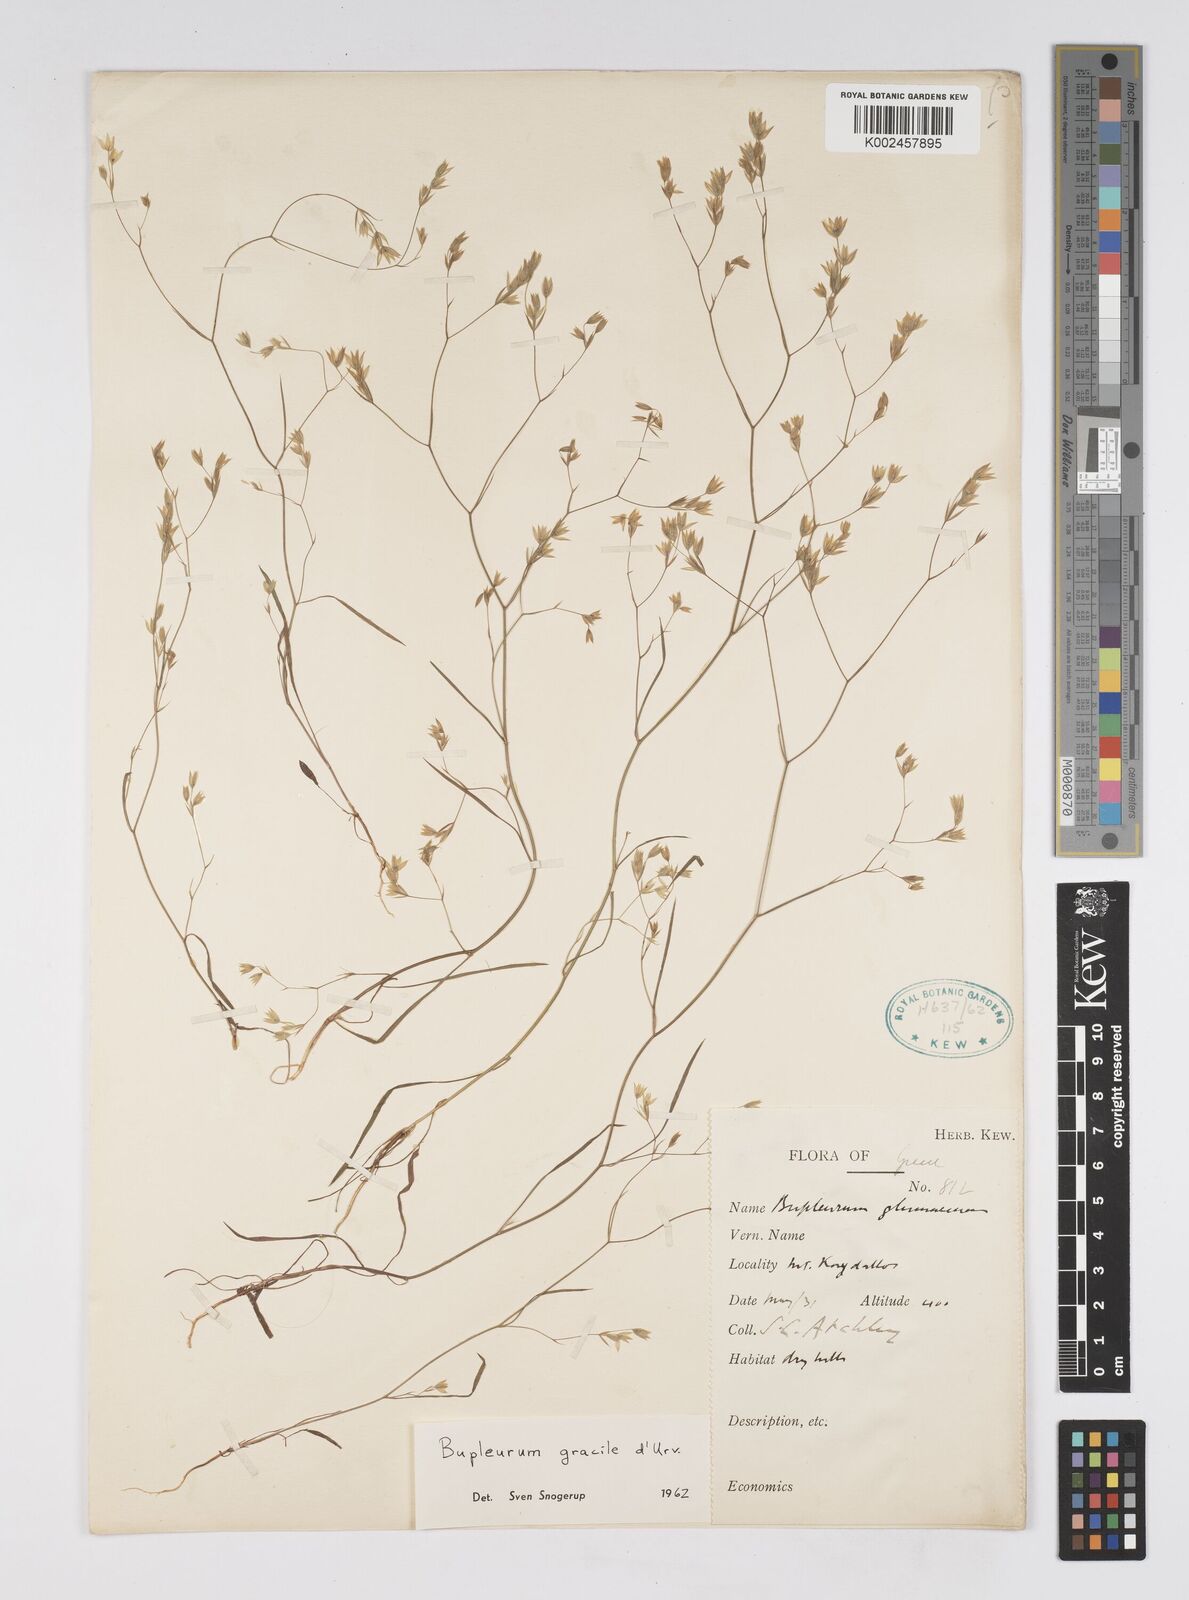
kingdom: Plantae
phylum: Tracheophyta
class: Magnoliopsida
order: Apiales
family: Apiaceae
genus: Bupleurum
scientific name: Bupleurum gracile
